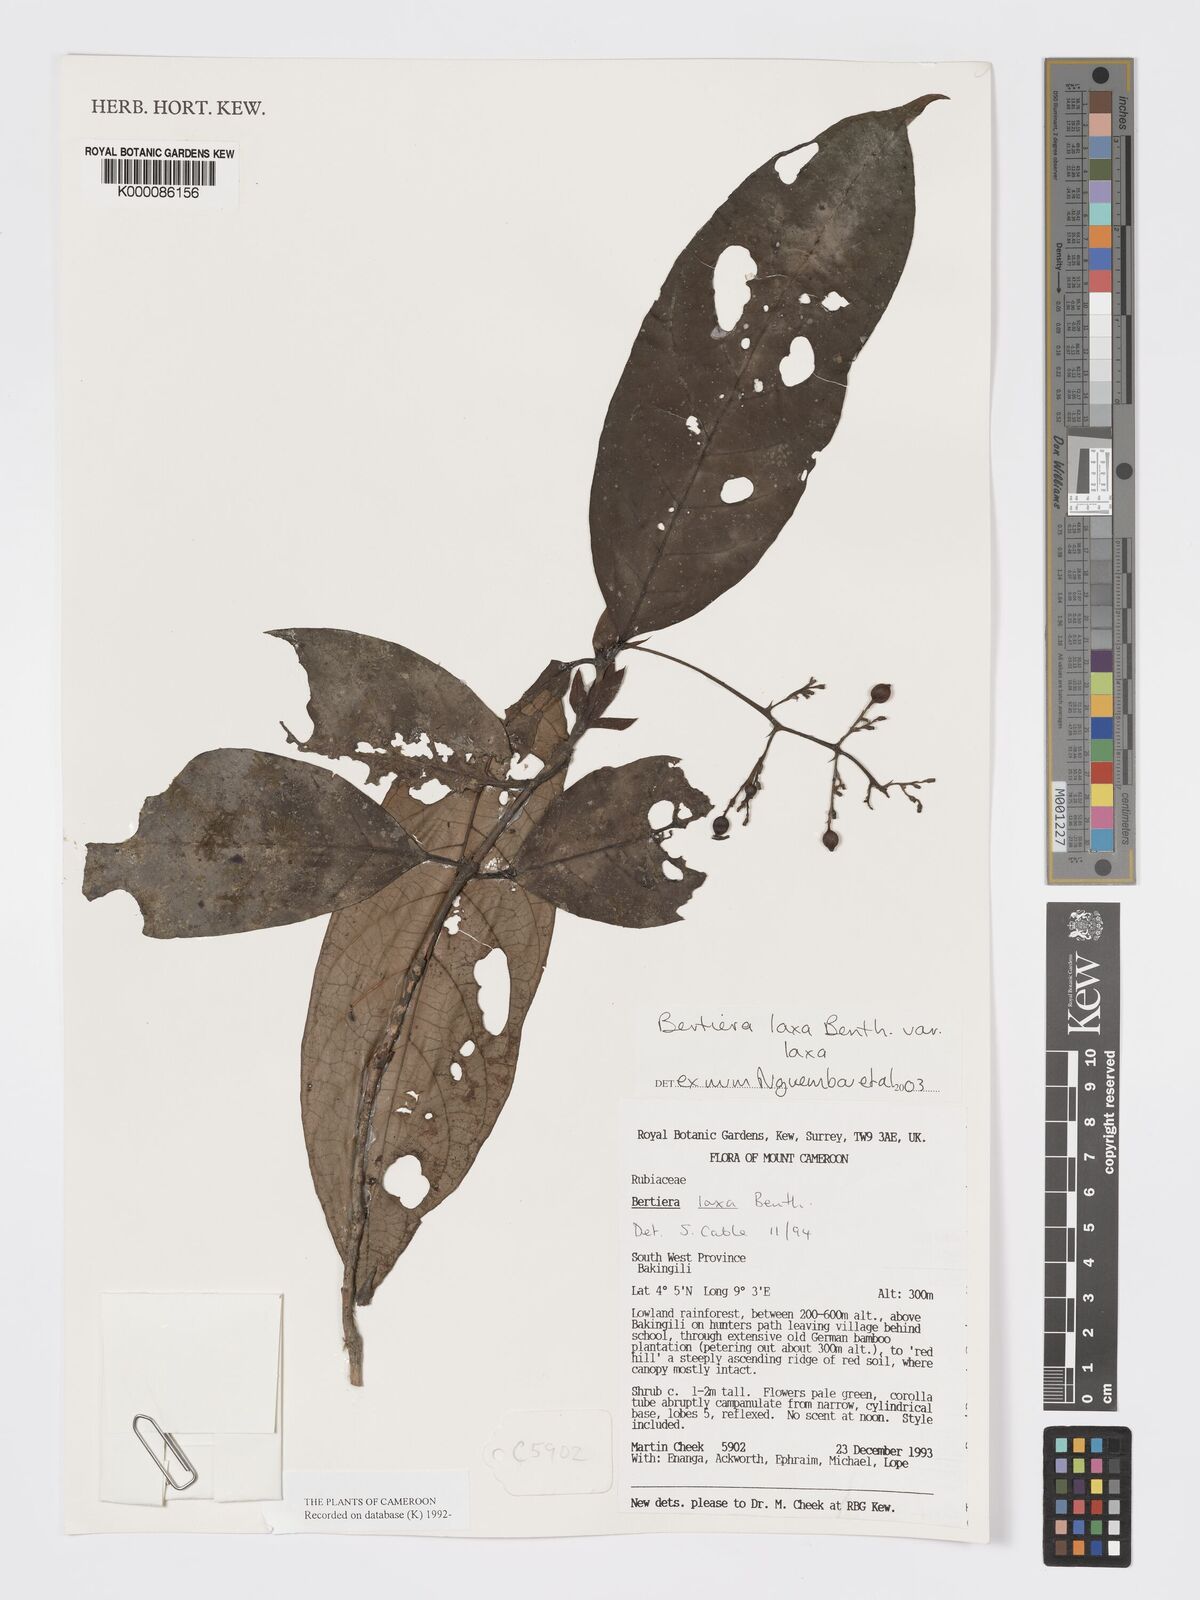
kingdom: Plantae
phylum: Tracheophyta
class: Magnoliopsida
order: Gentianales
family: Rubiaceae
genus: Bertiera
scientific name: Bertiera laxa
